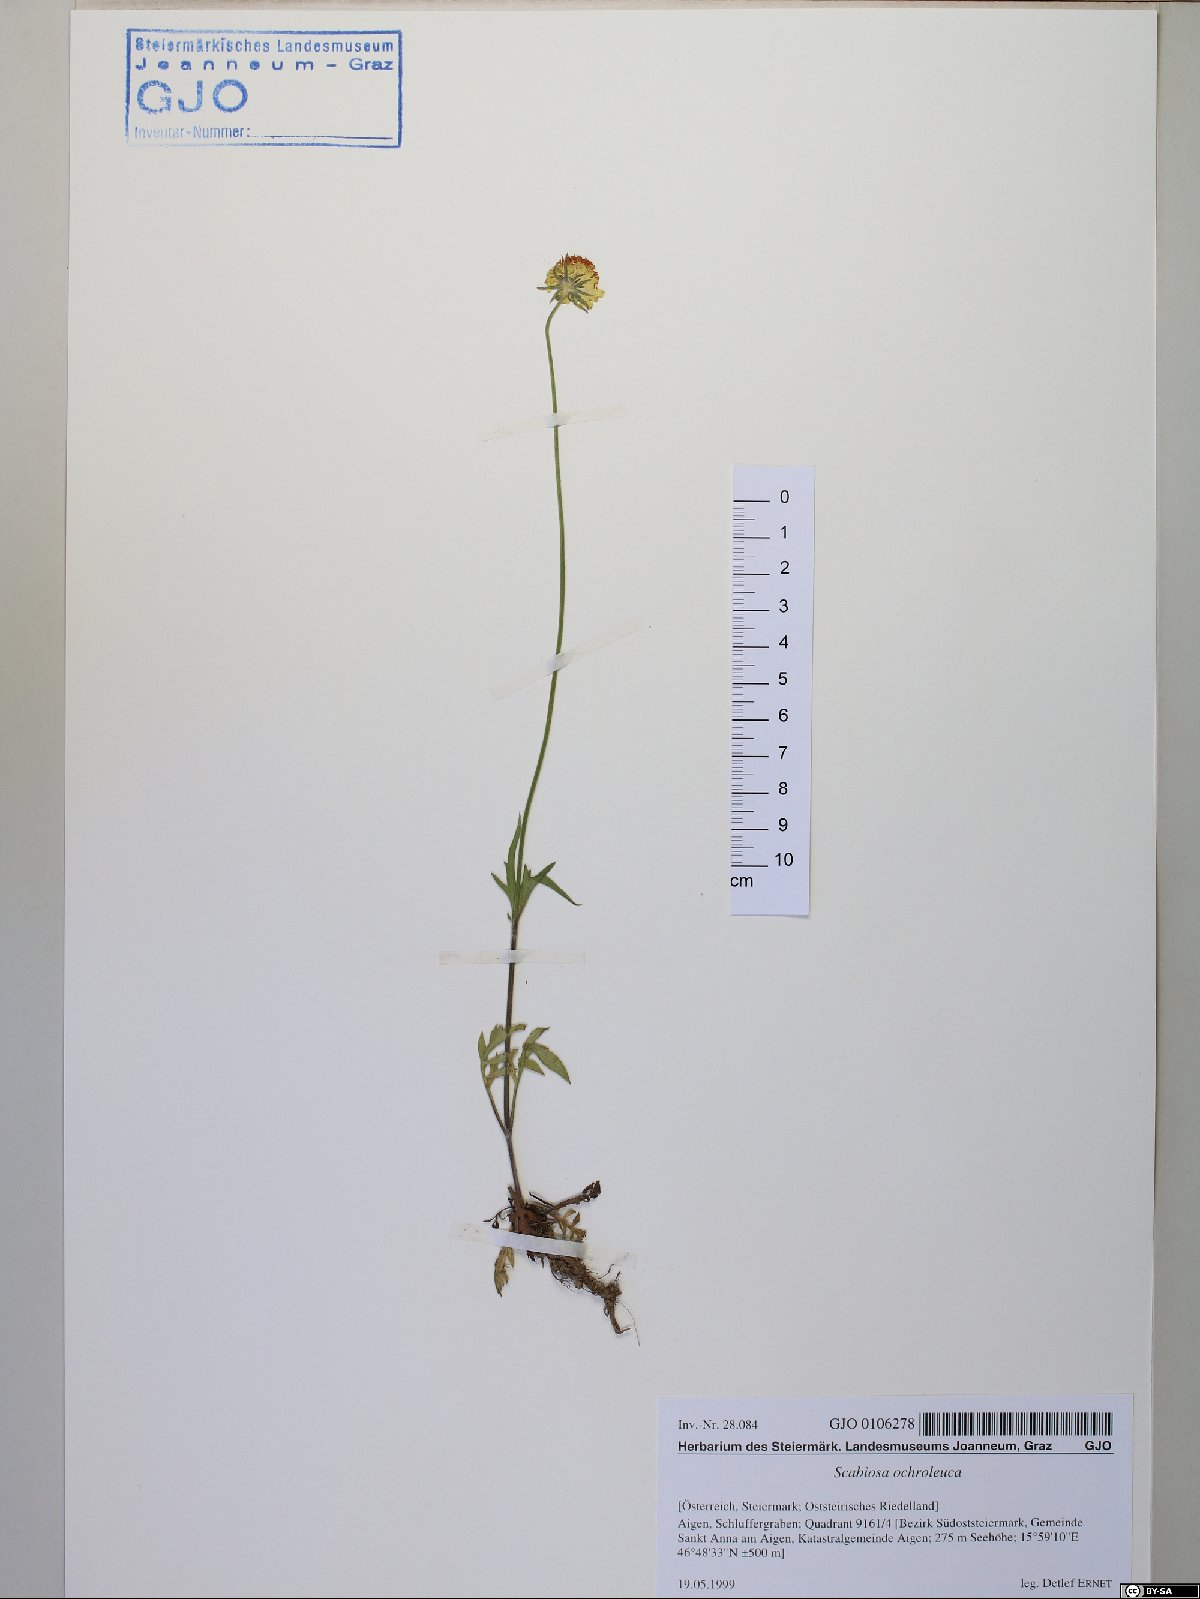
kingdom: Plantae
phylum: Tracheophyta
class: Magnoliopsida
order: Dipsacales
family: Caprifoliaceae
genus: Scabiosa
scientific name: Scabiosa ochroleuca
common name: Cream pincushions
